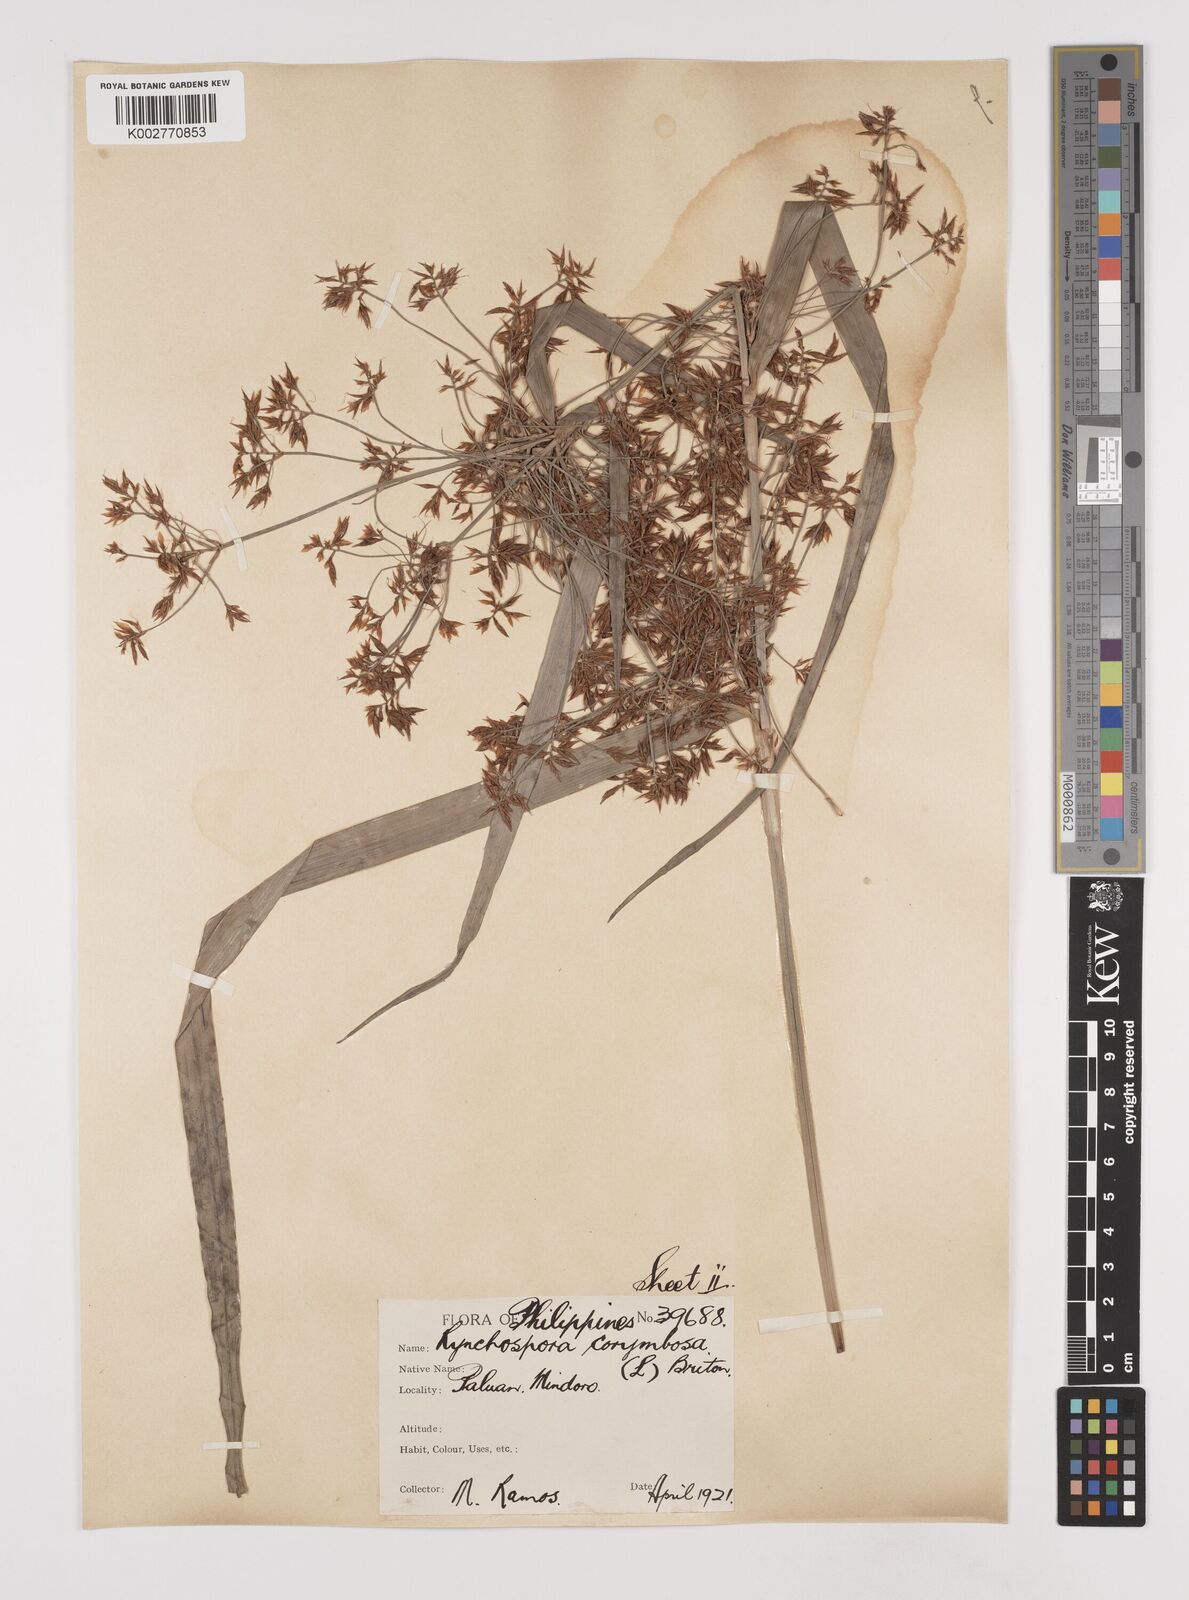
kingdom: Plantae
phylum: Tracheophyta
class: Liliopsida
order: Poales
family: Cyperaceae
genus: Rhynchospora
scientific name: Rhynchospora corymbosa
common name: Golden beak sedge
